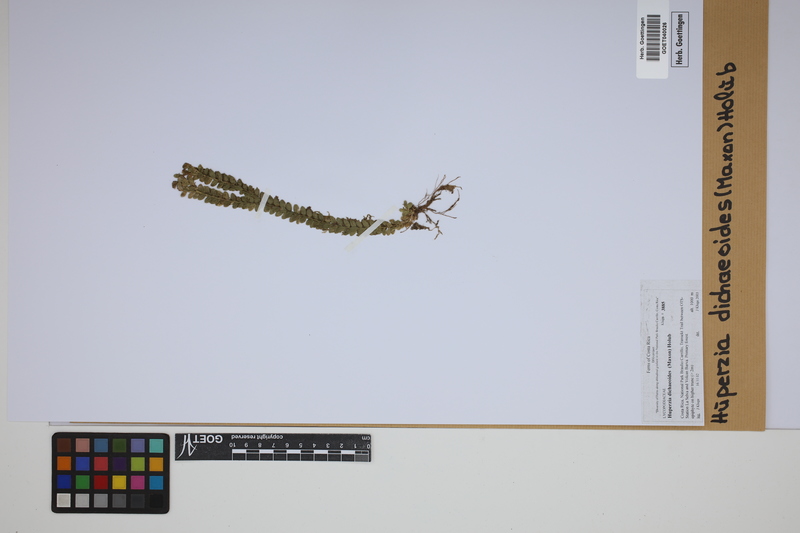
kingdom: Plantae
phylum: Tracheophyta
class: Lycopodiopsida
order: Lycopodiales
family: Lycopodiaceae
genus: Phlegmariurus
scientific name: Phlegmariurus dichaeoides
